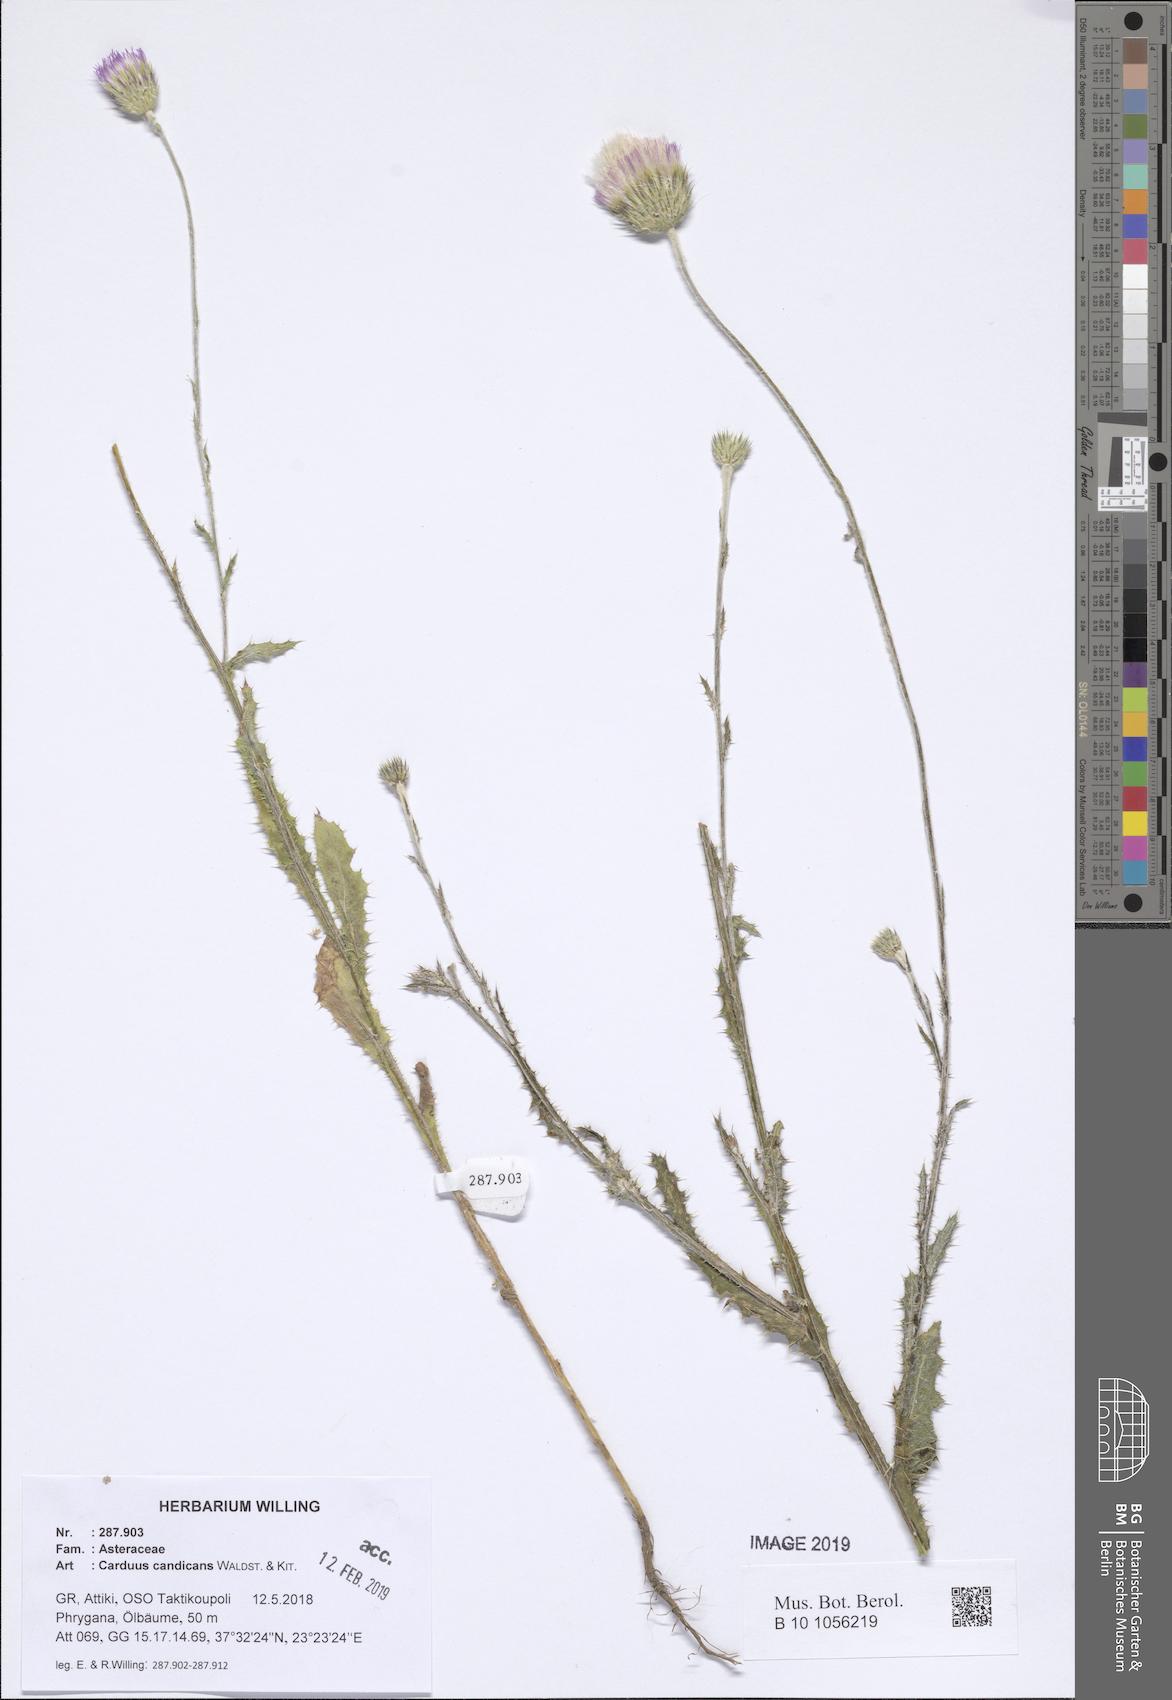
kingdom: Plantae
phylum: Tracheophyta
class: Magnoliopsida
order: Asterales
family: Asteraceae
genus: Carduus
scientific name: Carduus candicans
